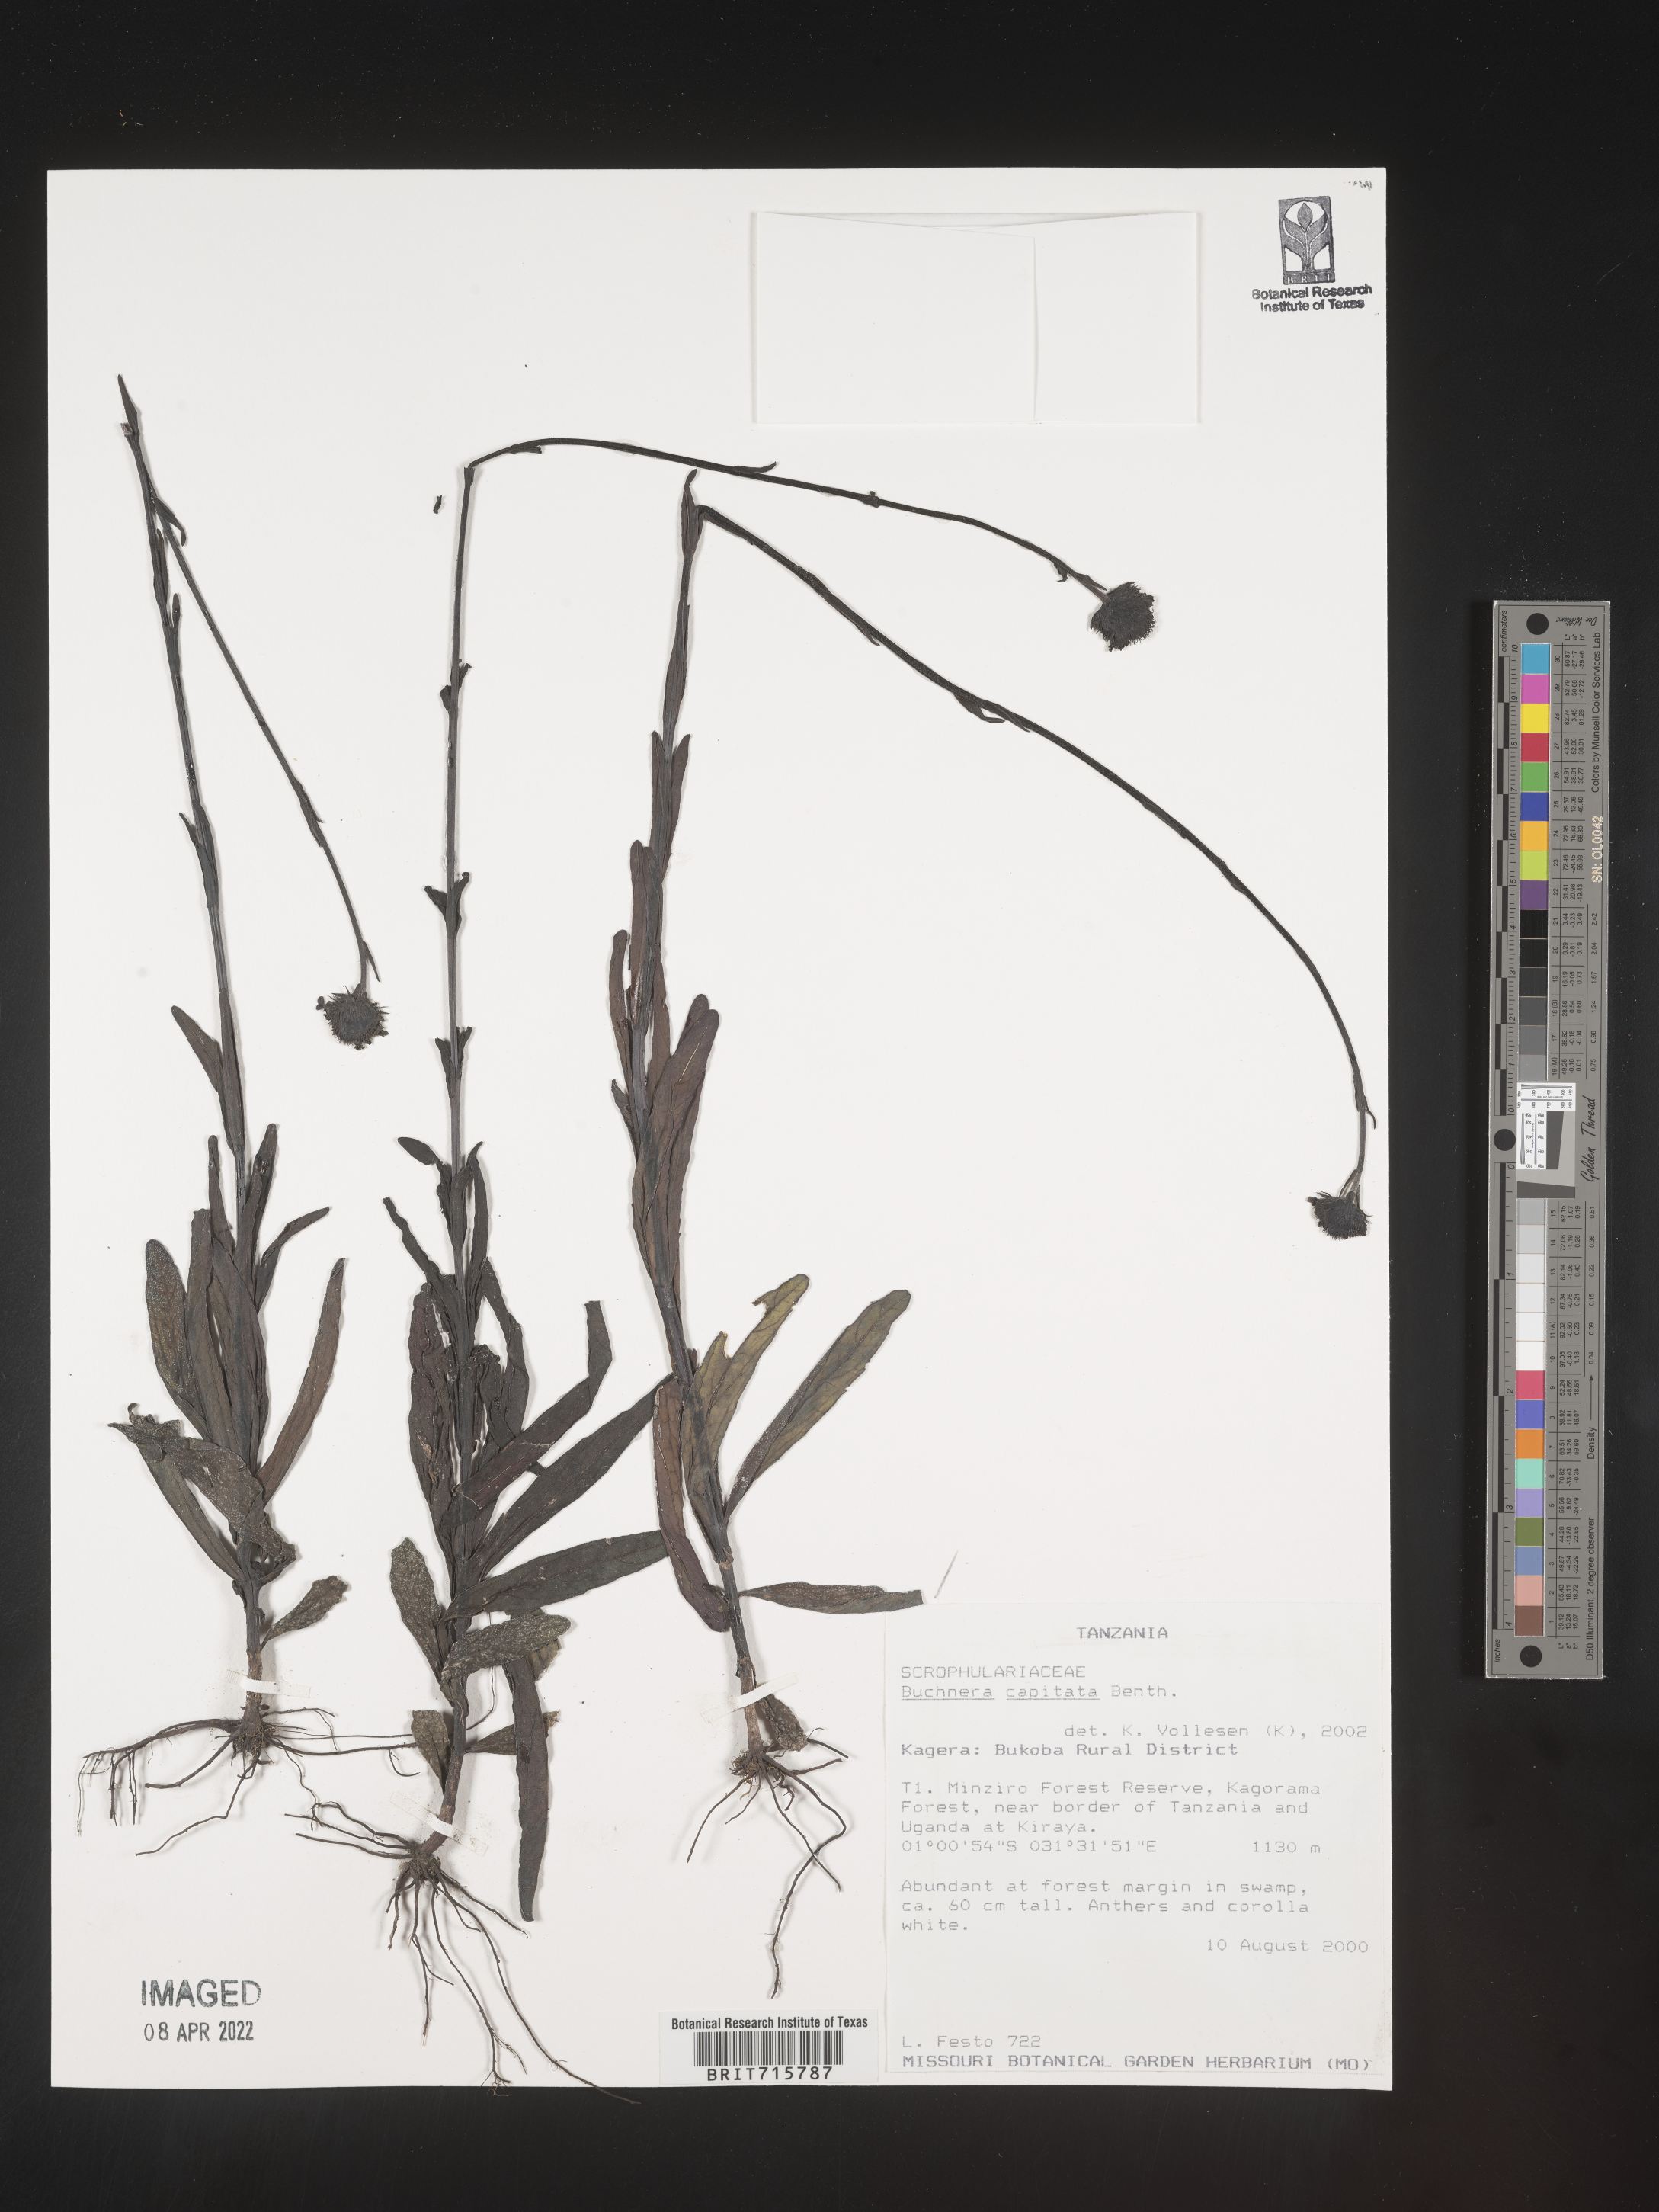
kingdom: Plantae
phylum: Tracheophyta
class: Magnoliopsida
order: Lamiales
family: Orobanchaceae
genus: Buchnera
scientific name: Buchnera
